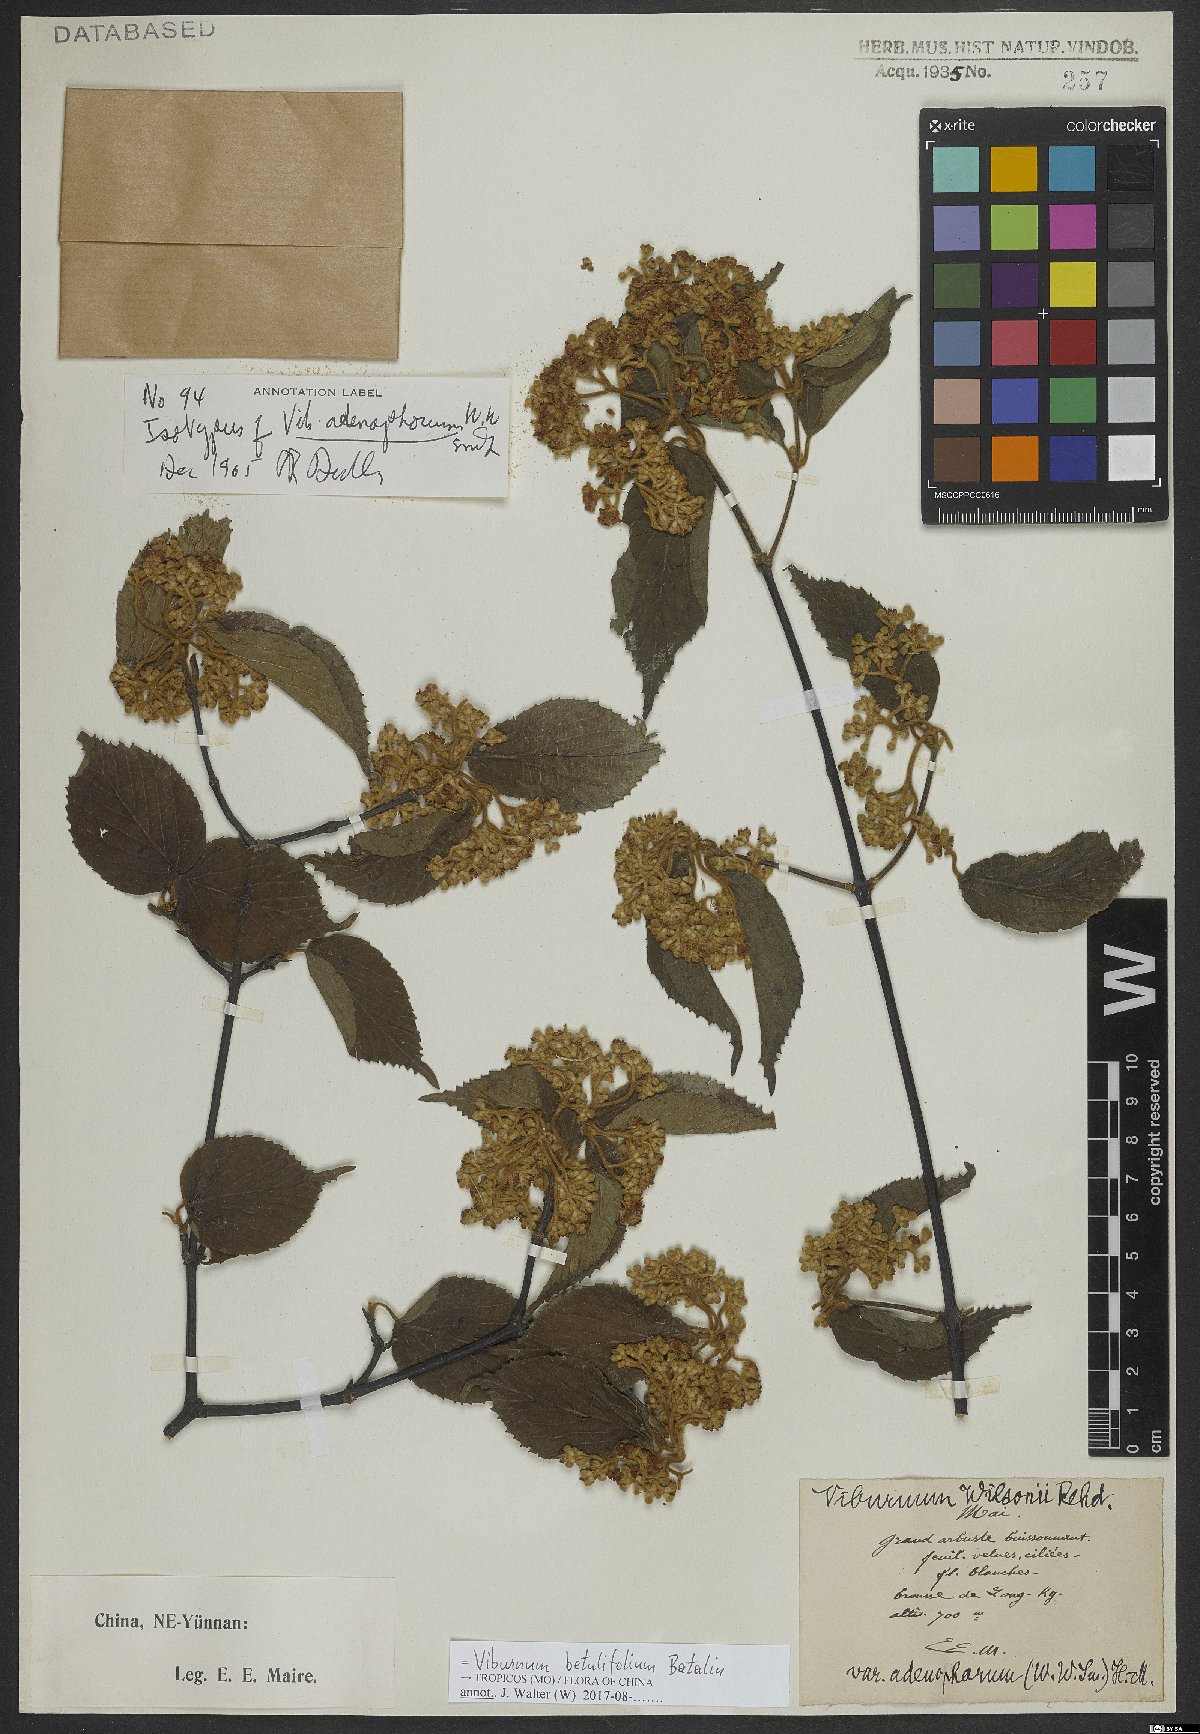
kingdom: Plantae
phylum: Tracheophyta
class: Magnoliopsida
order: Dipsacales
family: Viburnaceae
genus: Viburnum
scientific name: Viburnum betulifolium
